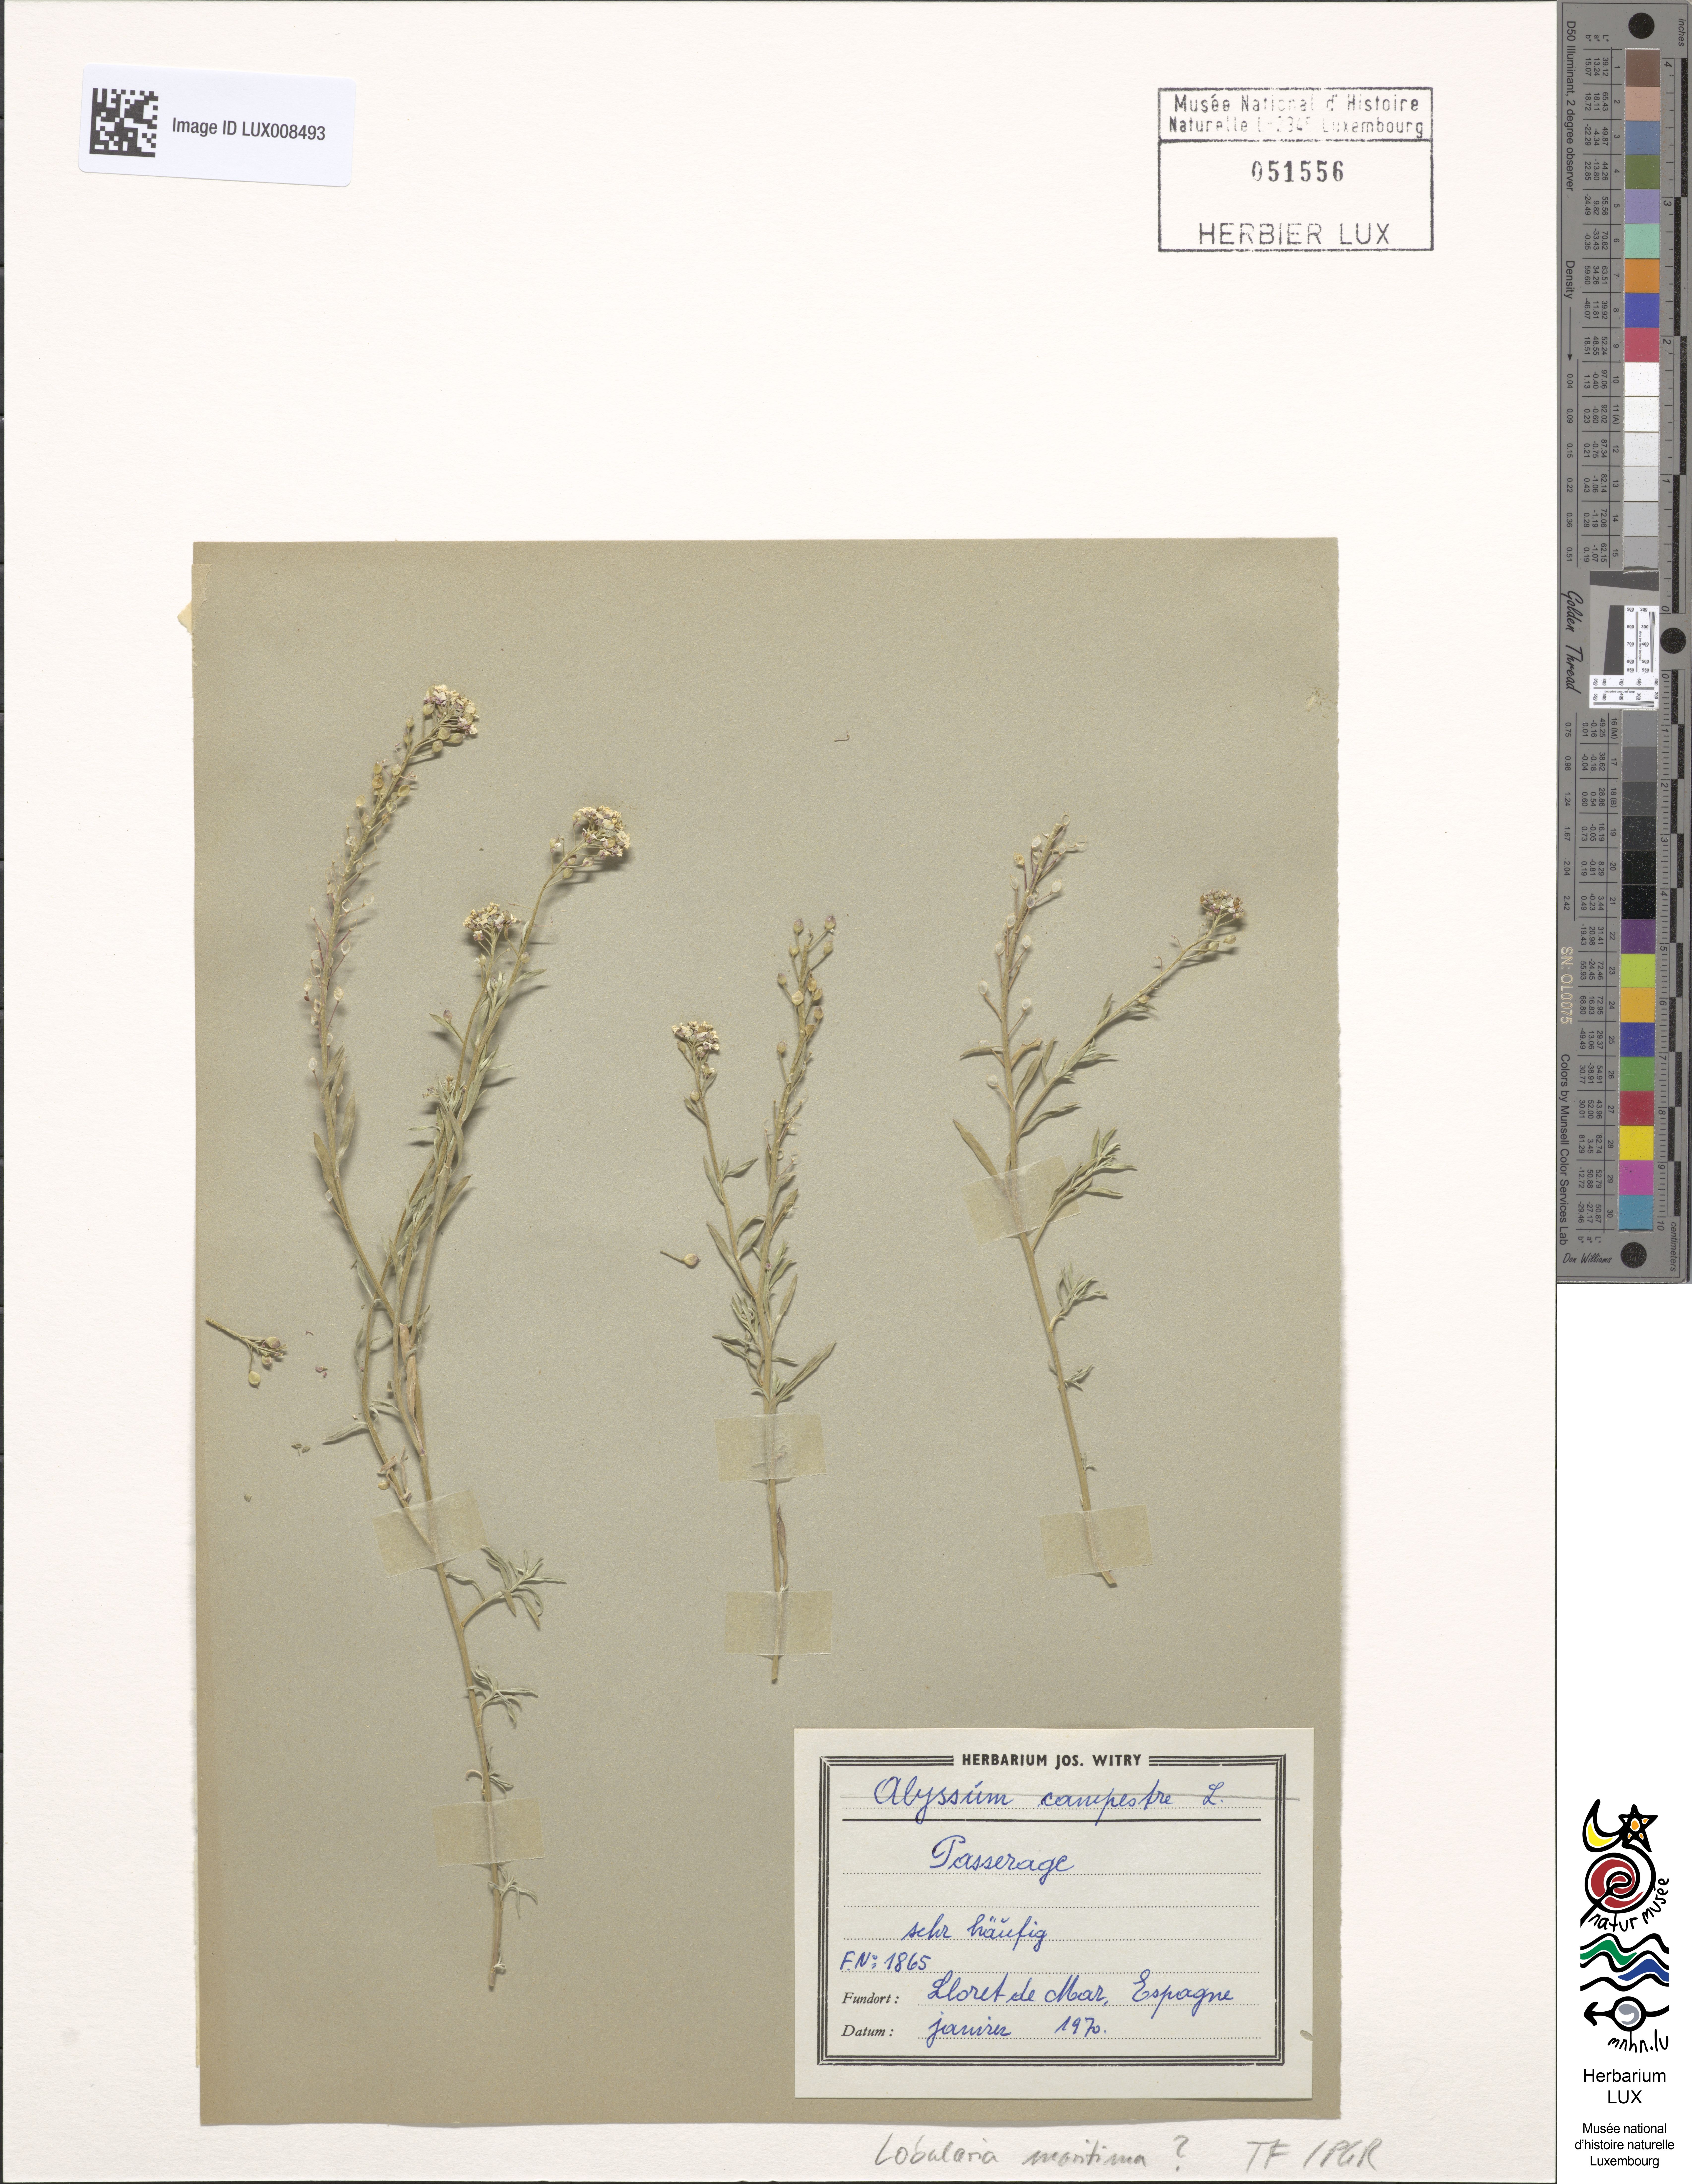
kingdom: Plantae
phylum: Tracheophyta
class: Magnoliopsida
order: Brassicales
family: Brassicaceae
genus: Lobularia
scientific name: Lobularia maritima
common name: Sweet alison
